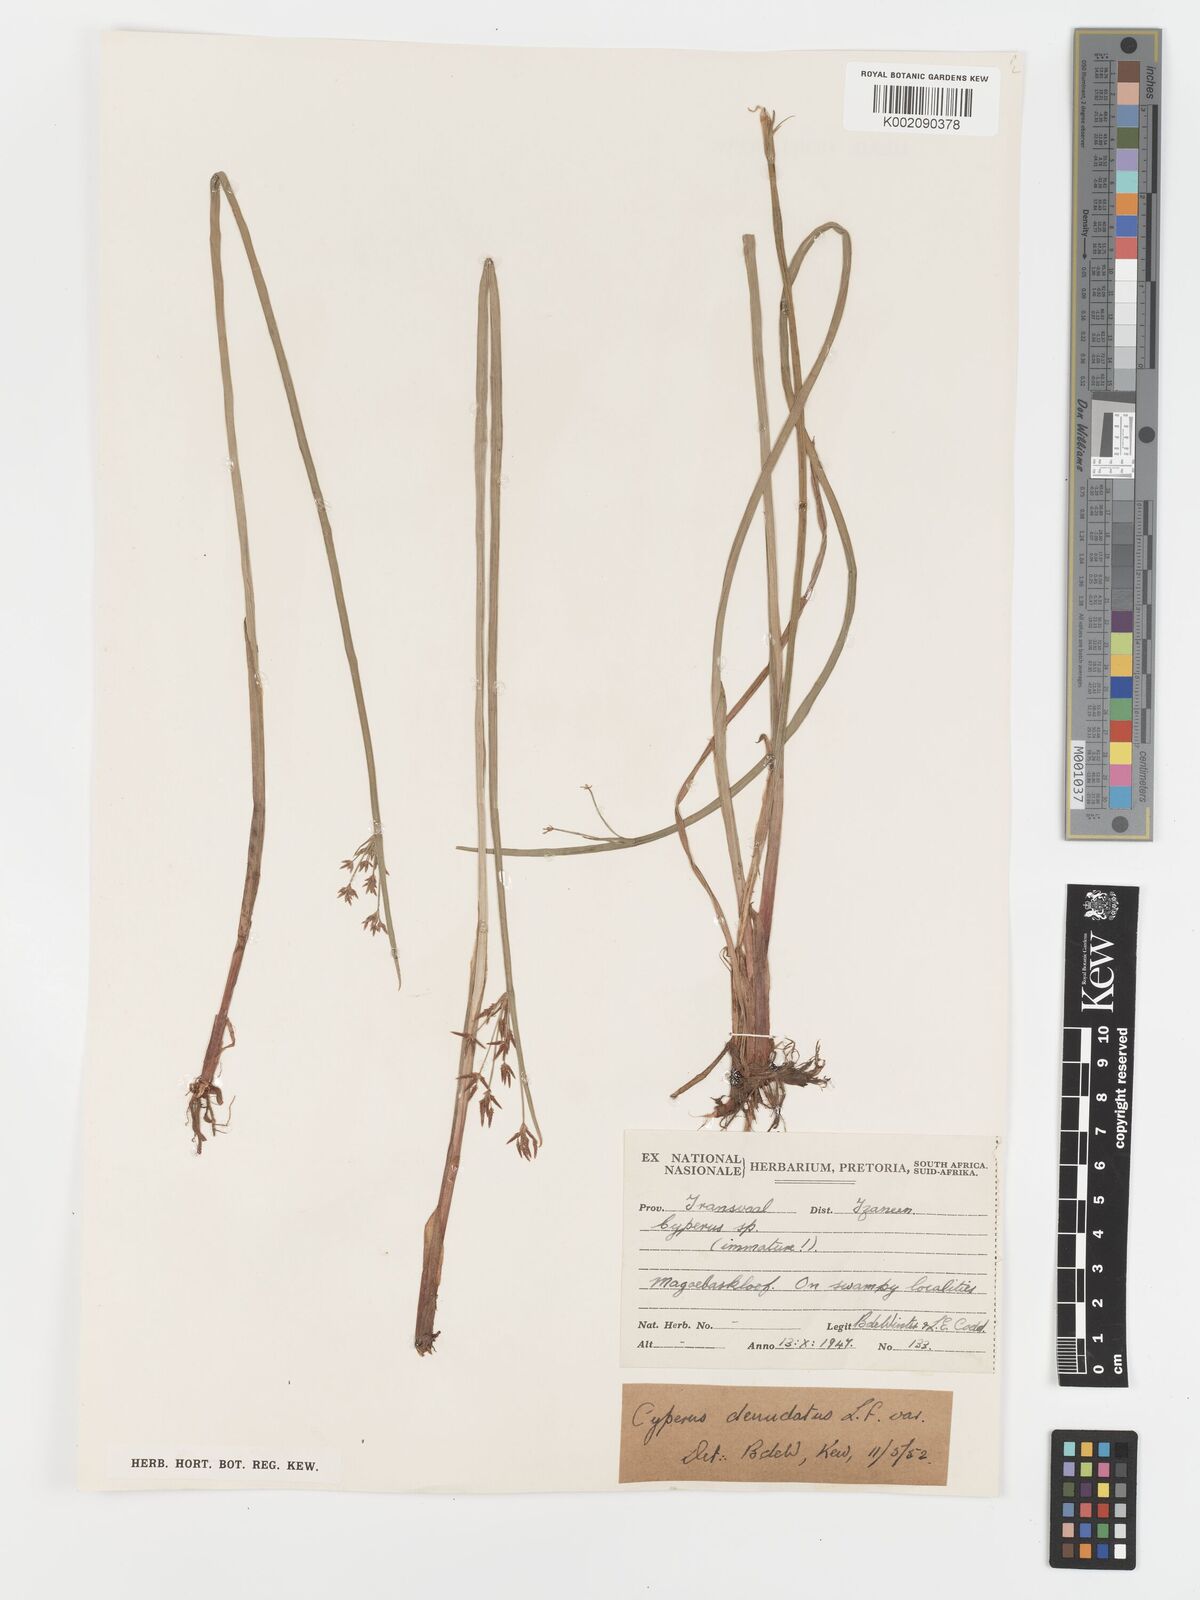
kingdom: Plantae
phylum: Tracheophyta
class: Liliopsida
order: Poales
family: Cyperaceae
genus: Cyperus
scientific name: Cyperus haspan
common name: Haspan flatsedge
